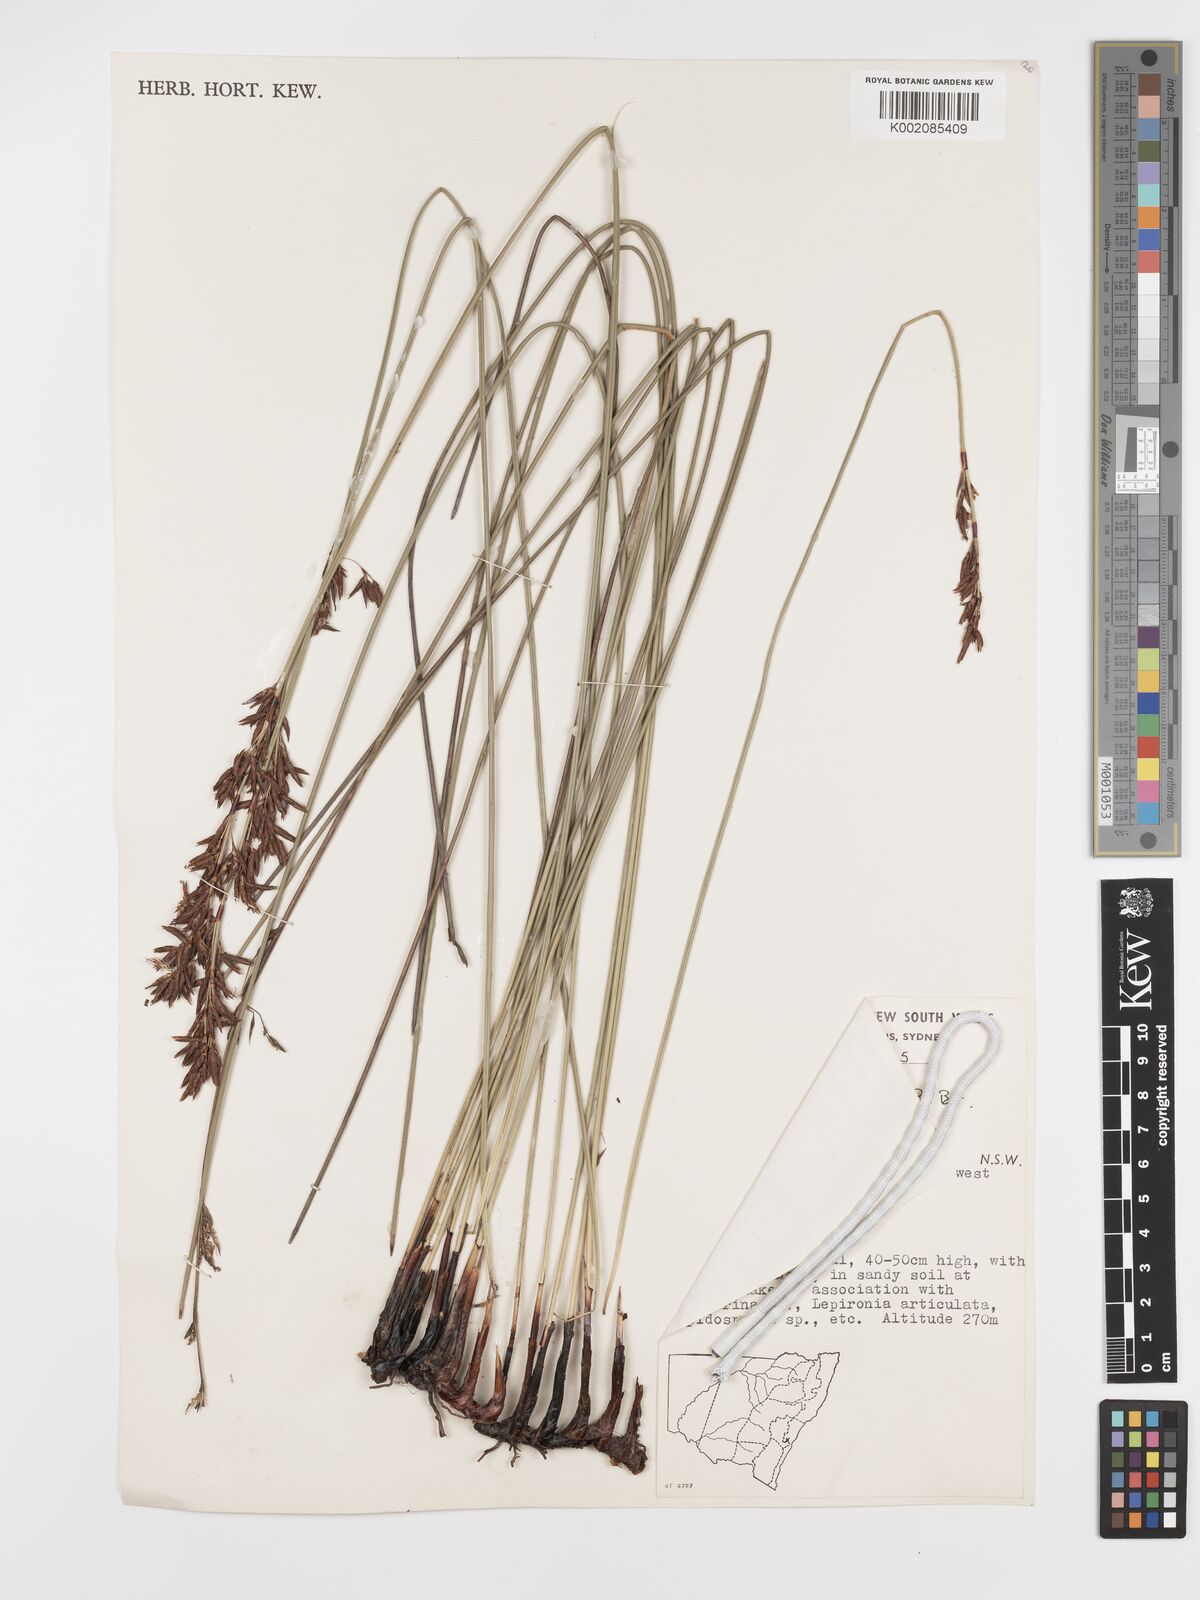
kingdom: Plantae
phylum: Tracheophyta
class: Liliopsida
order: Poales
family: Cyperaceae
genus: Schoenus
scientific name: Schoenus brevifolius
